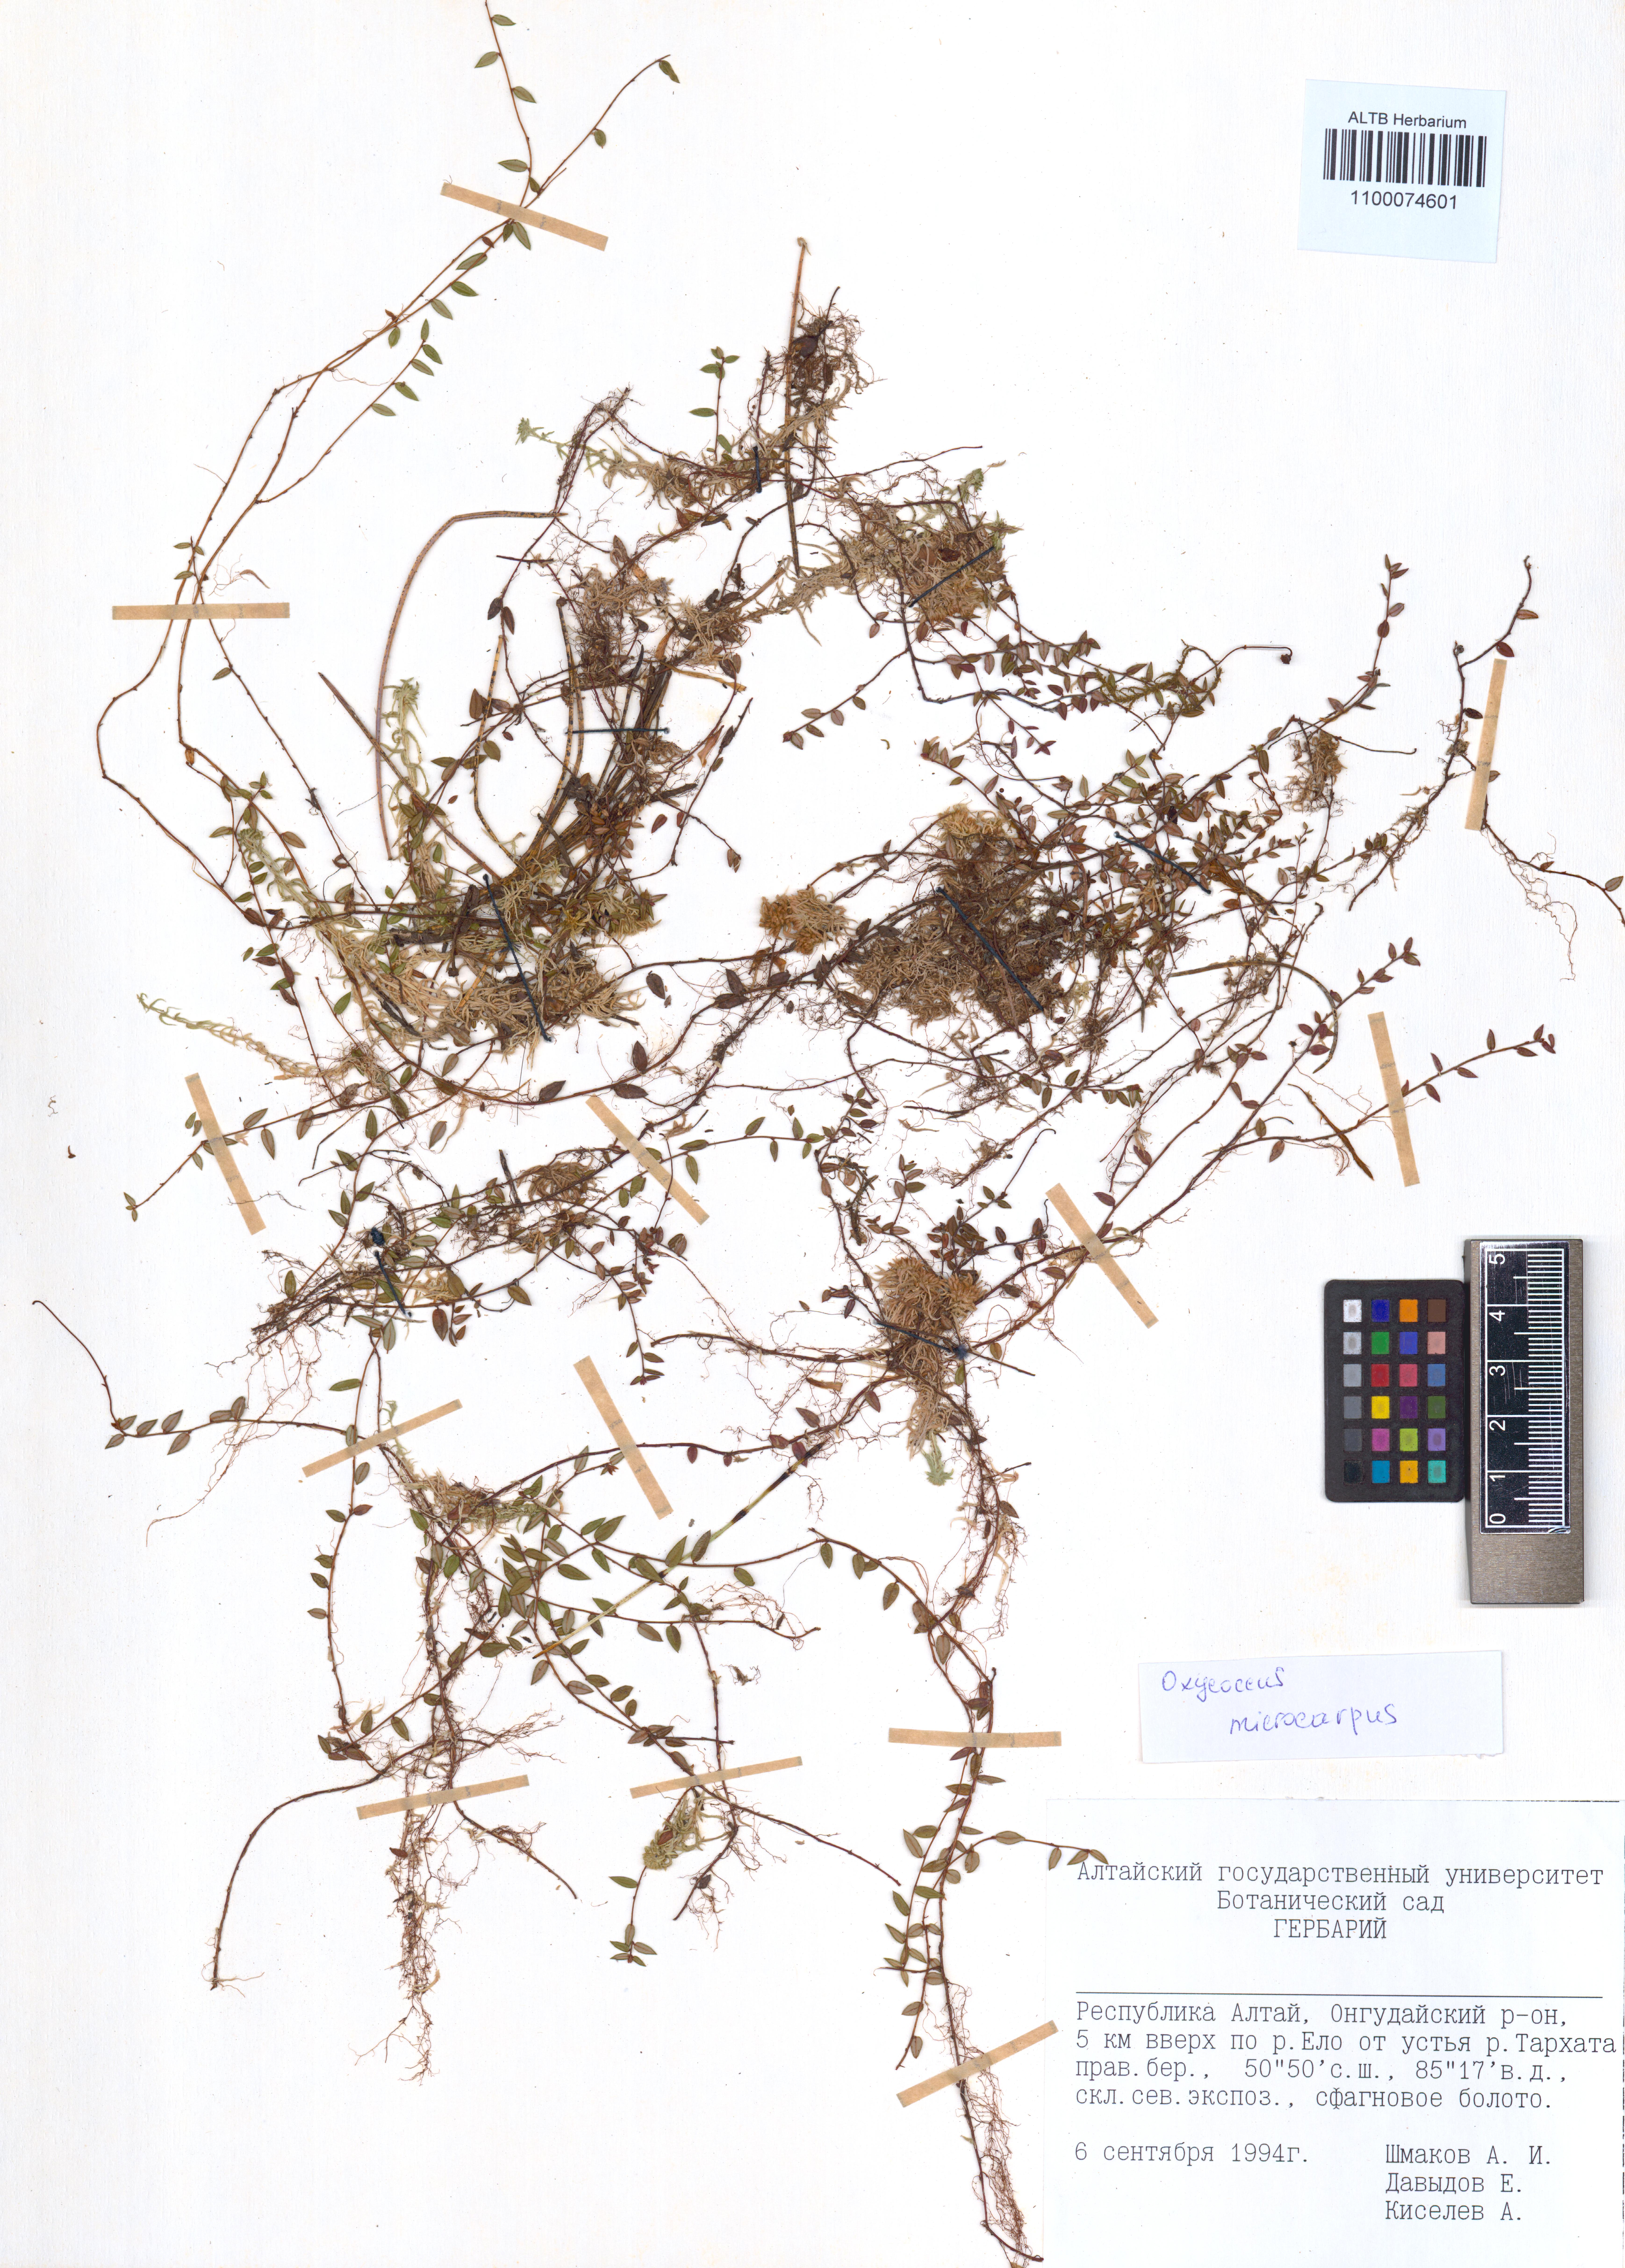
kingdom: Plantae
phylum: Tracheophyta
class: Magnoliopsida
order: Ericales
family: Ericaceae
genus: Vaccinium
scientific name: Vaccinium microcarpum
